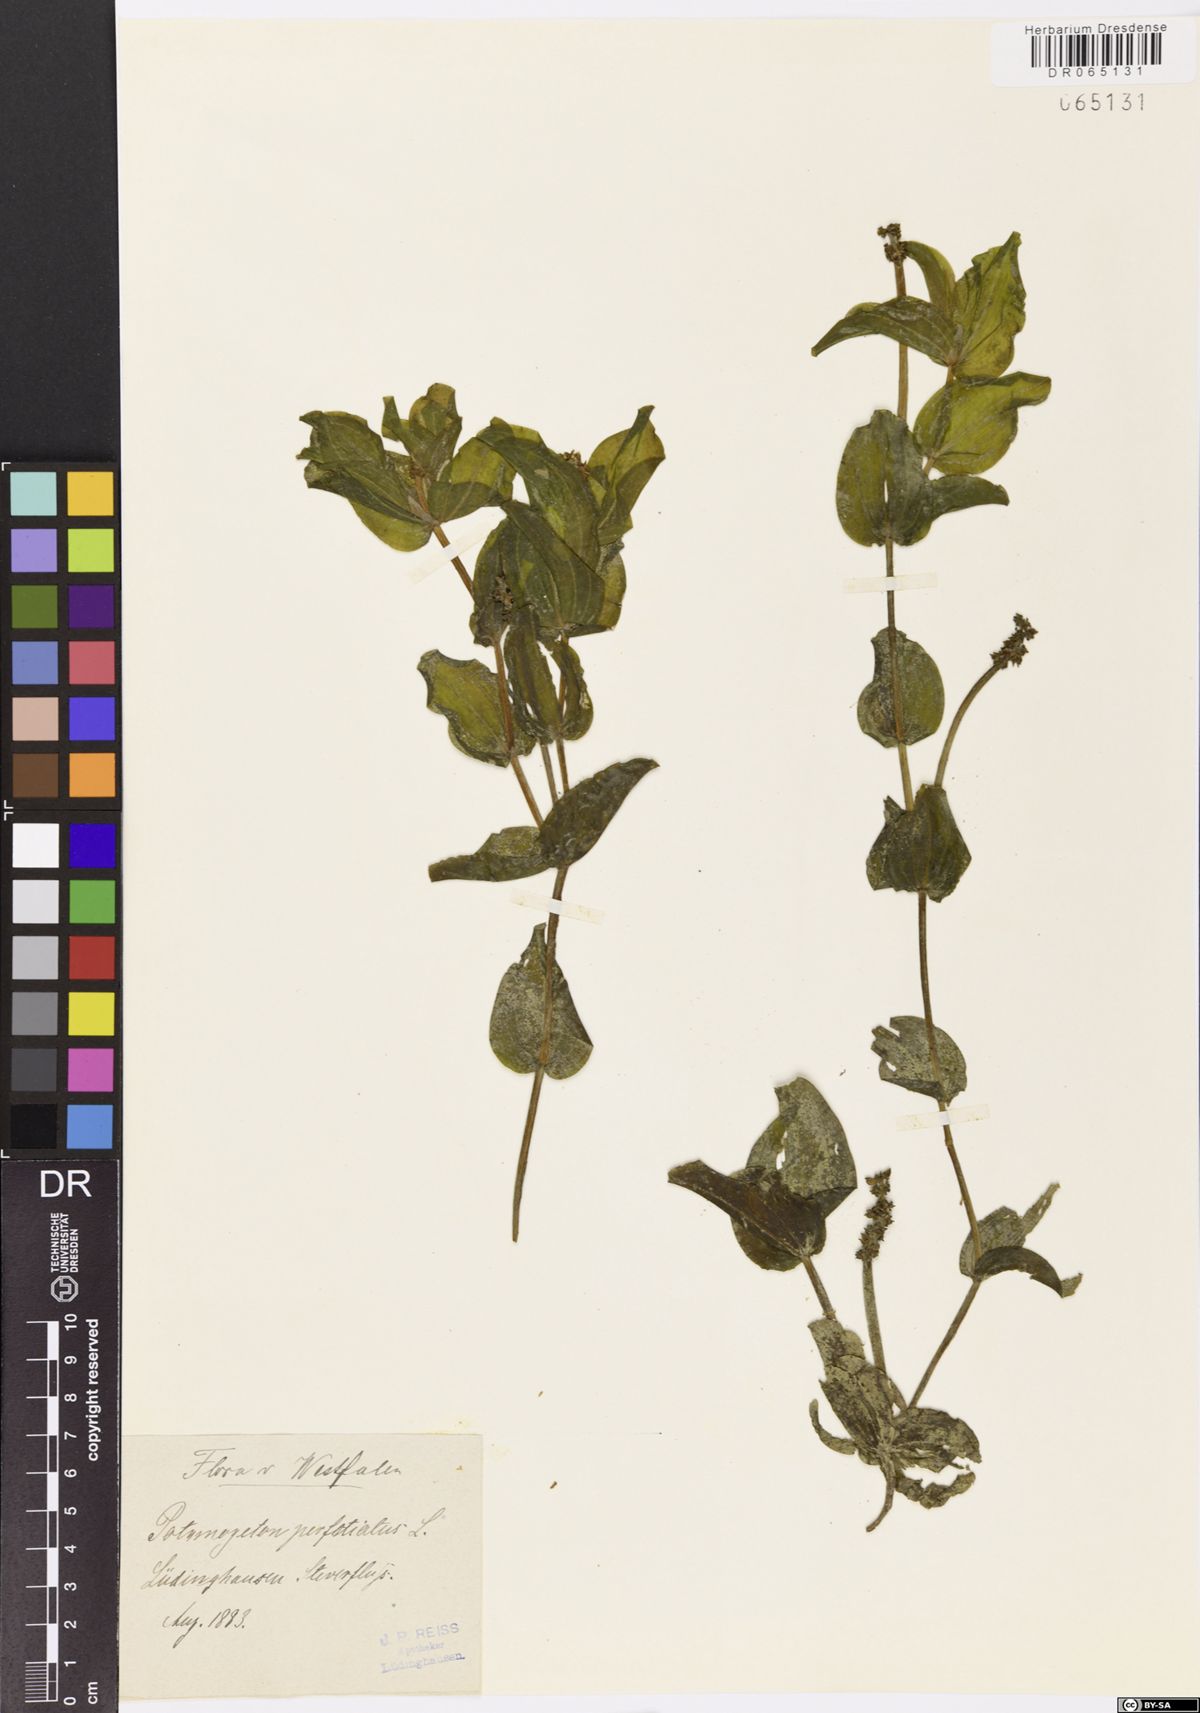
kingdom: Plantae
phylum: Tracheophyta
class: Liliopsida
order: Alismatales
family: Potamogetonaceae
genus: Potamogeton
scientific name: Potamogeton perfoliatus
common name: Perfoliate pondweed
